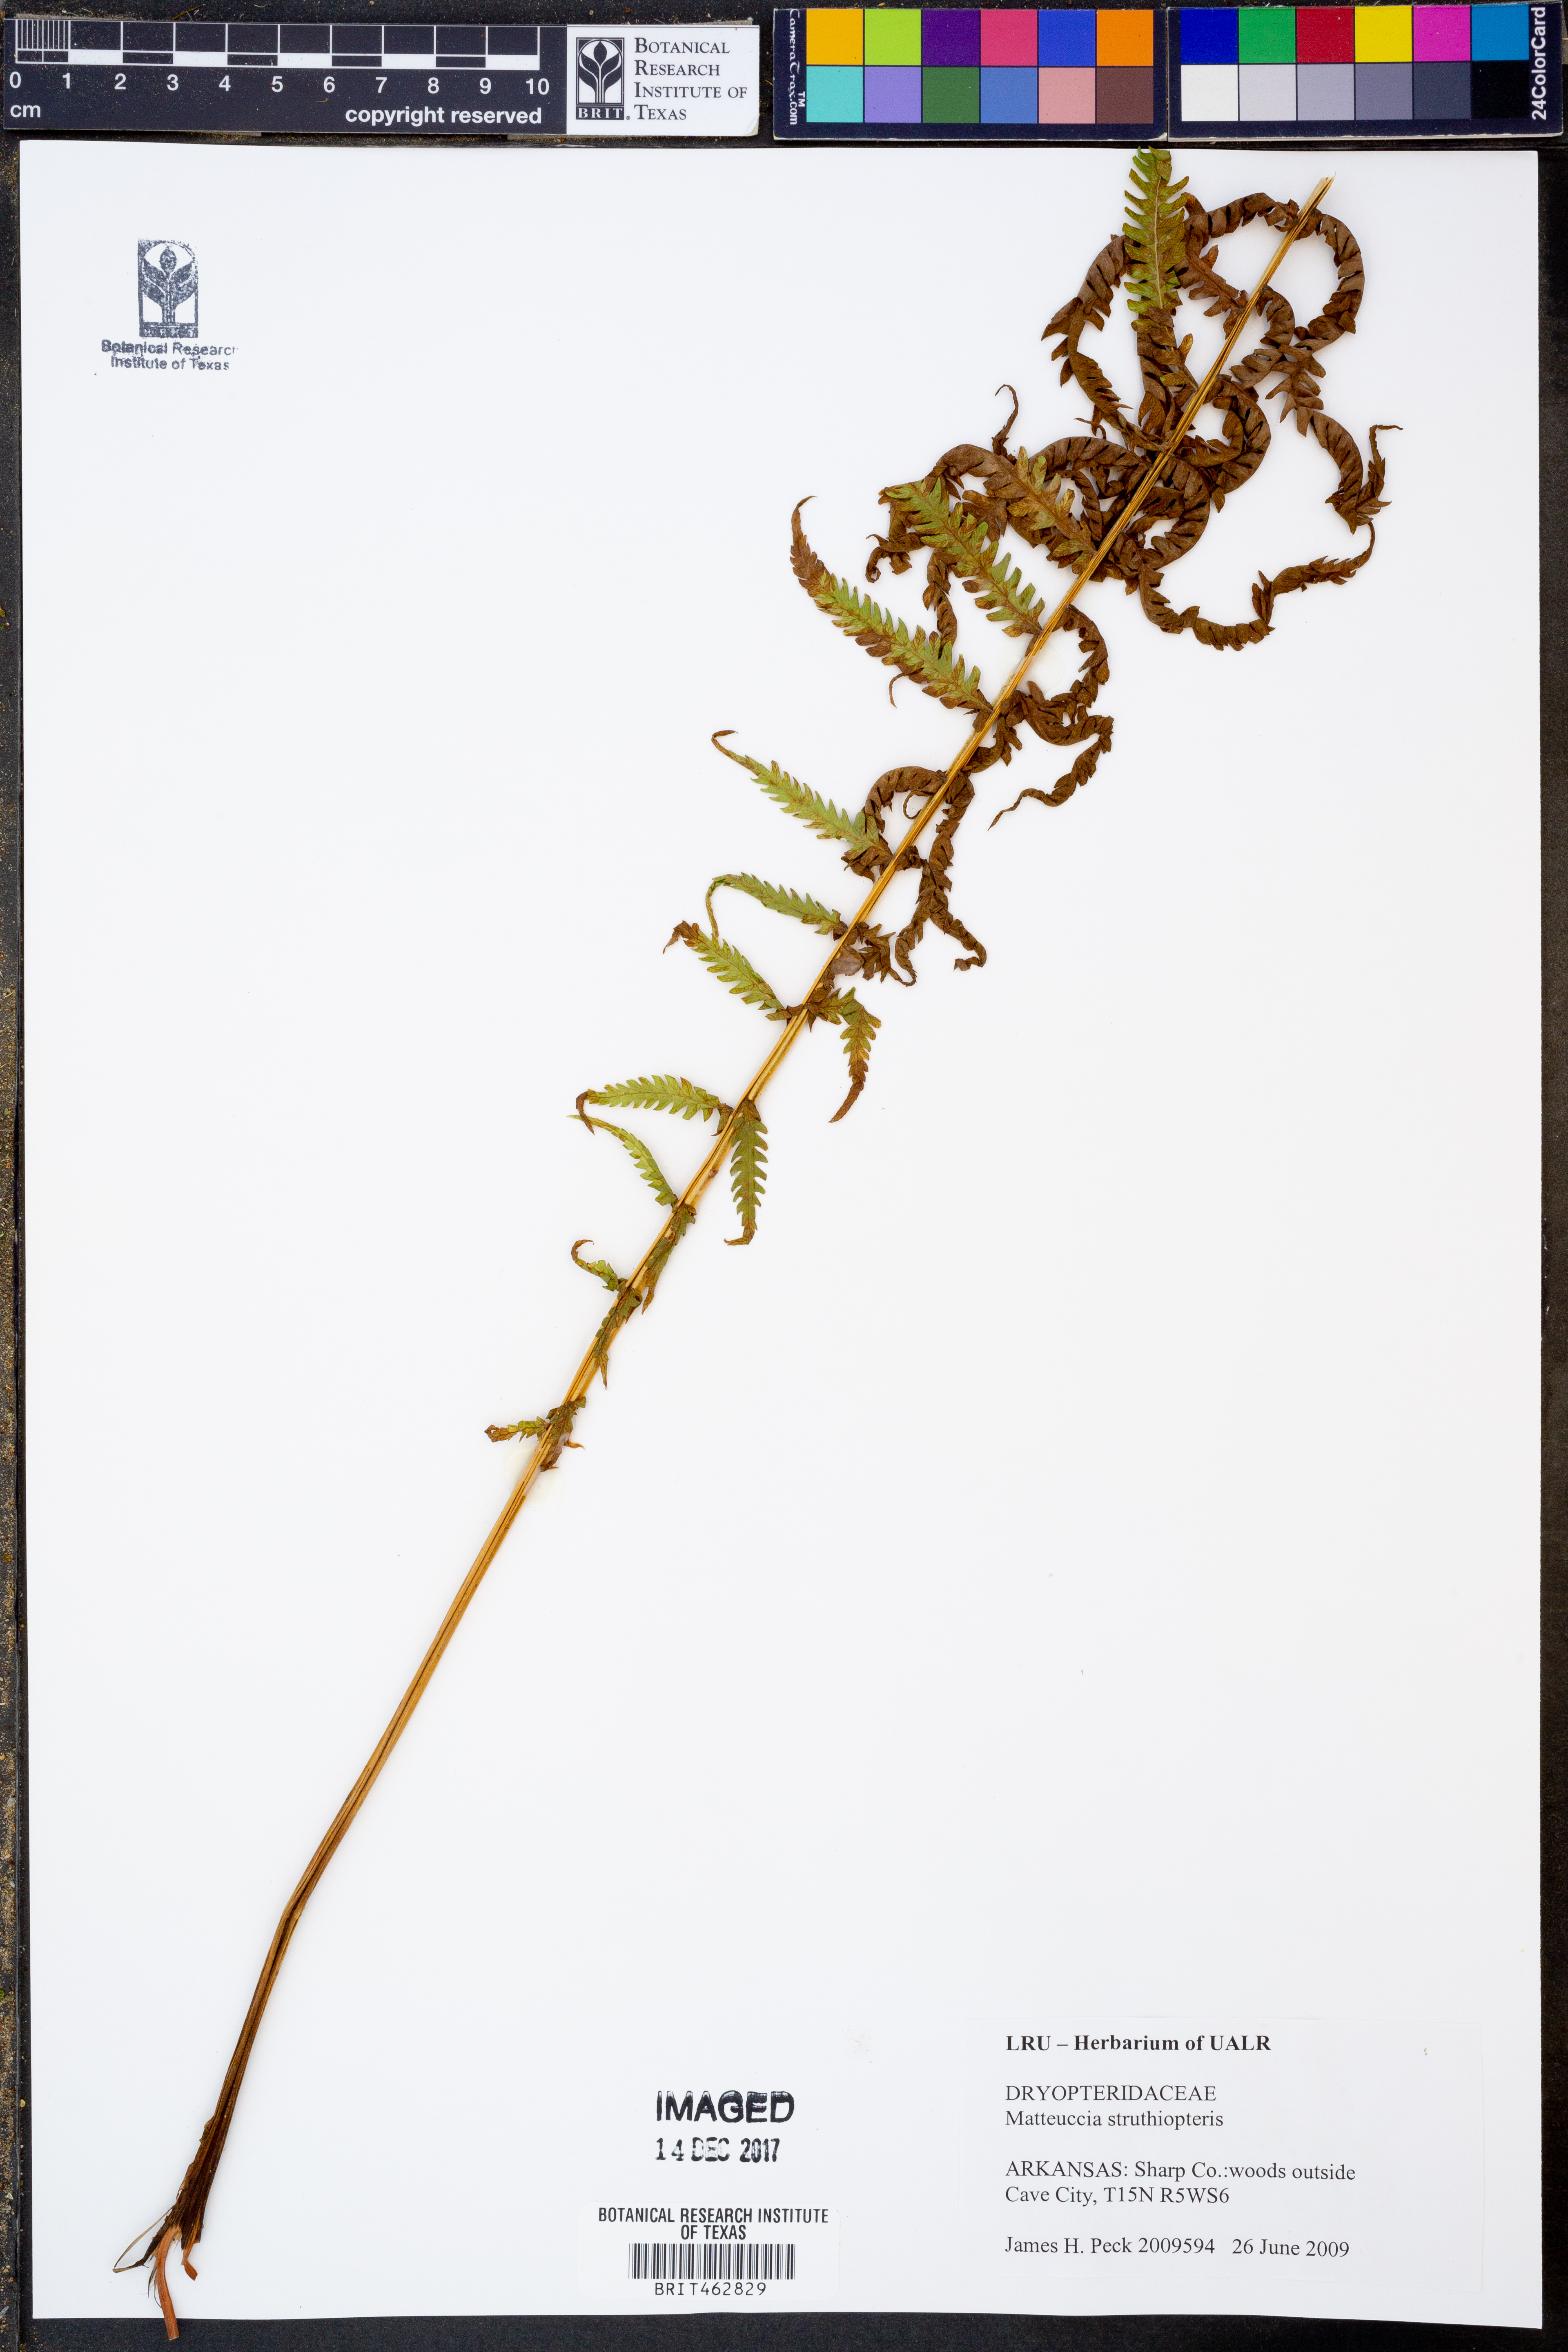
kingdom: Plantae
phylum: Tracheophyta
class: Polypodiopsida
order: Polypodiales
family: Onocleaceae
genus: Matteuccia
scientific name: Matteuccia struthiopteris
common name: Ostrich fern
